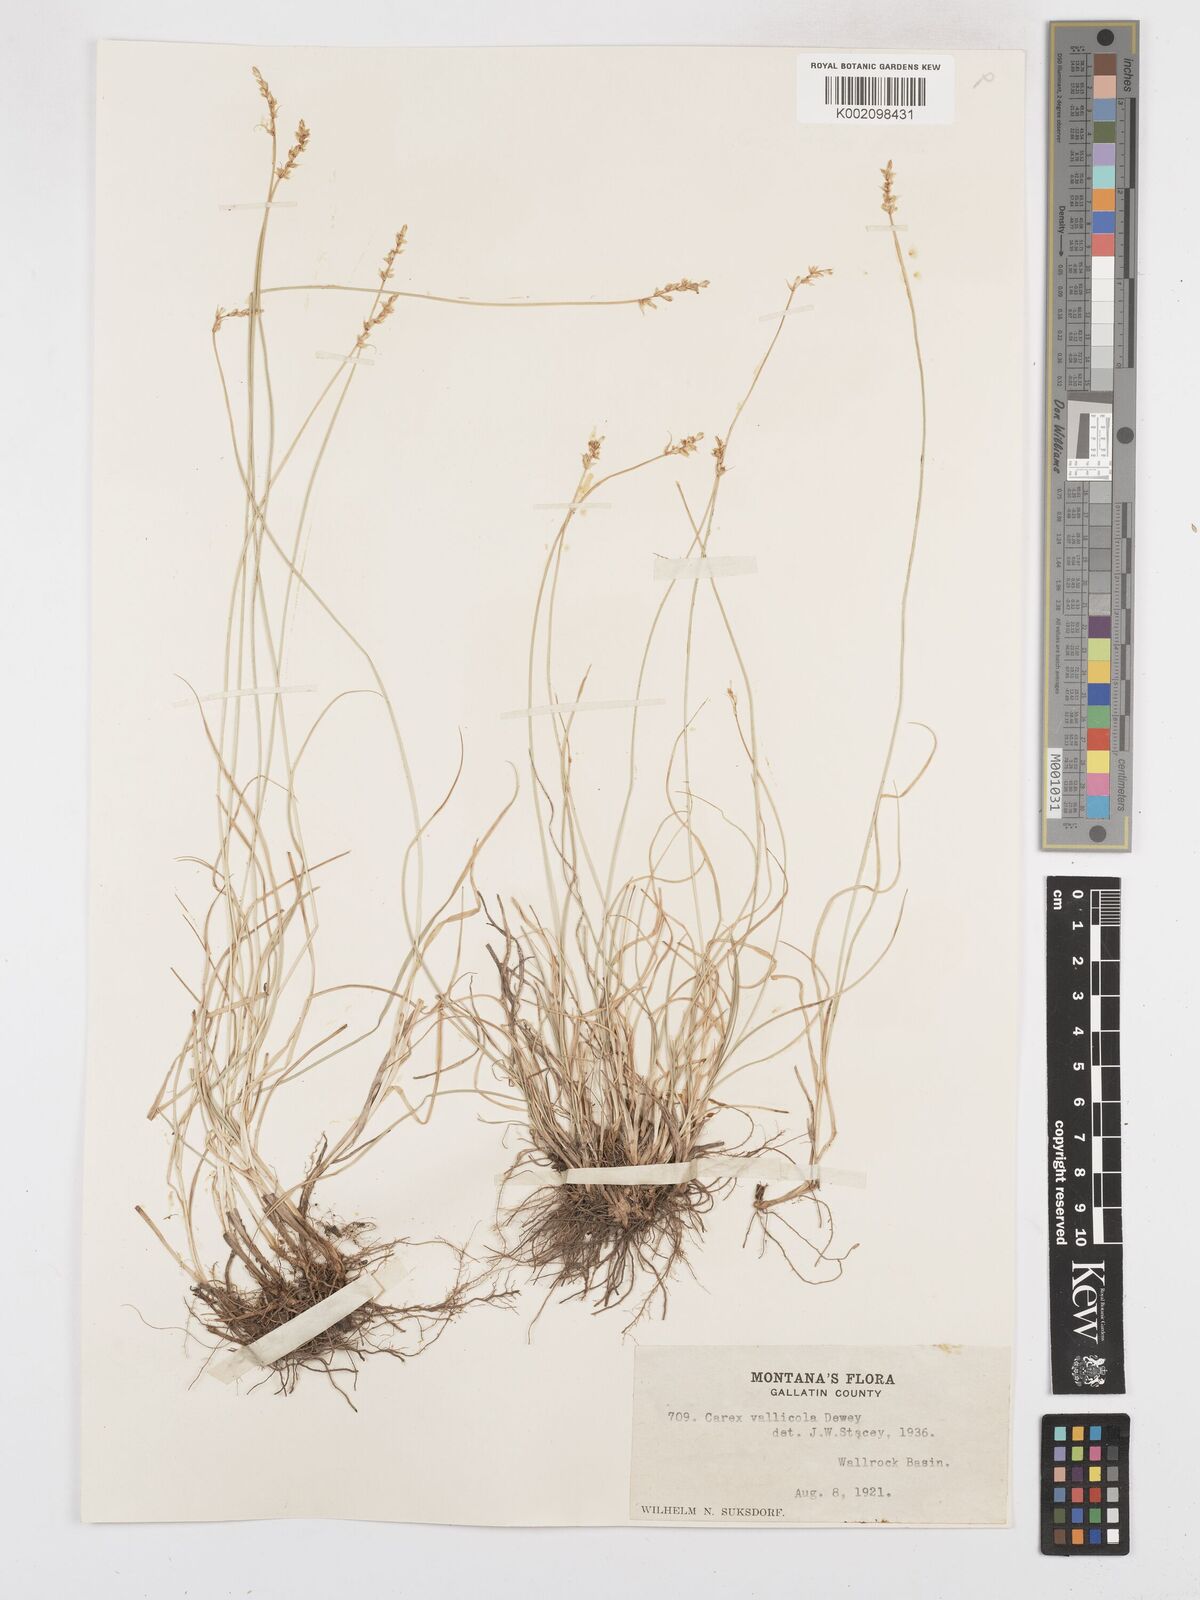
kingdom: Plantae
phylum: Tracheophyta
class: Liliopsida
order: Poales
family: Cyperaceae
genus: Carex
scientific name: Carex vallicola
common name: Valley sedge
